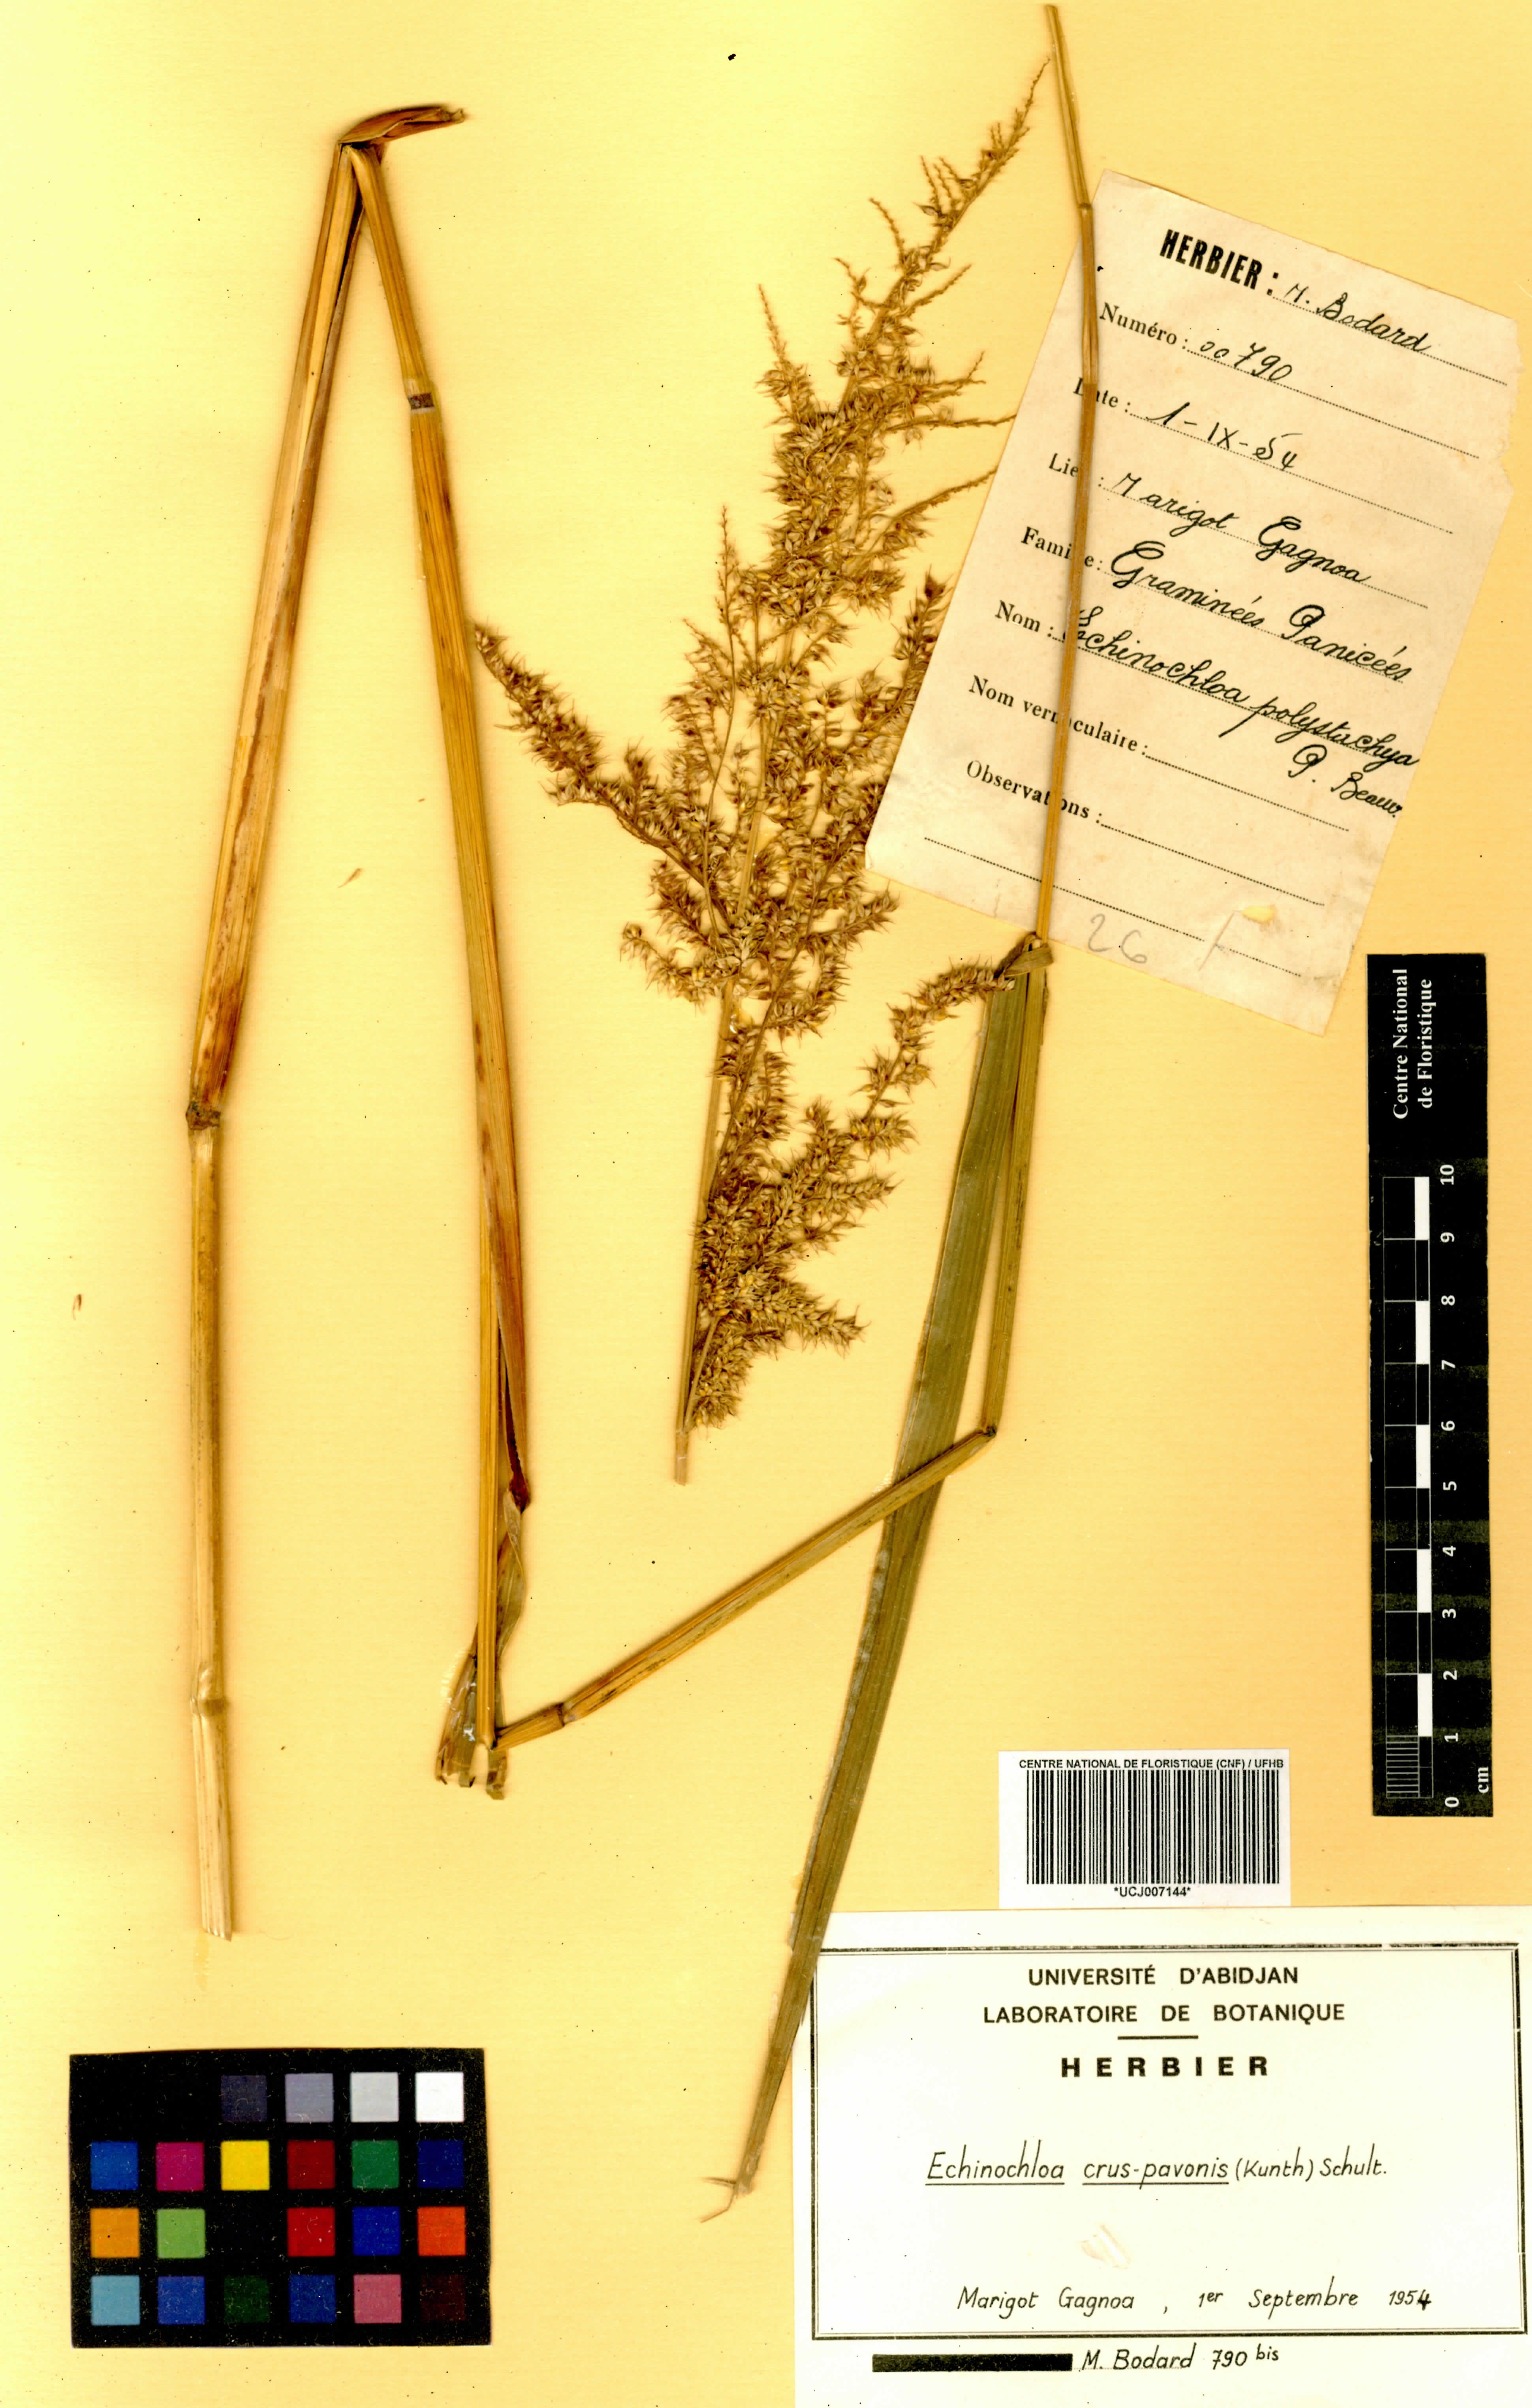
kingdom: Plantae
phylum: Tracheophyta
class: Liliopsida
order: Poales
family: Poaceae
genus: Echinochloa
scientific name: Echinochloa crus-pavonis
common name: Gulf cockspur grass
